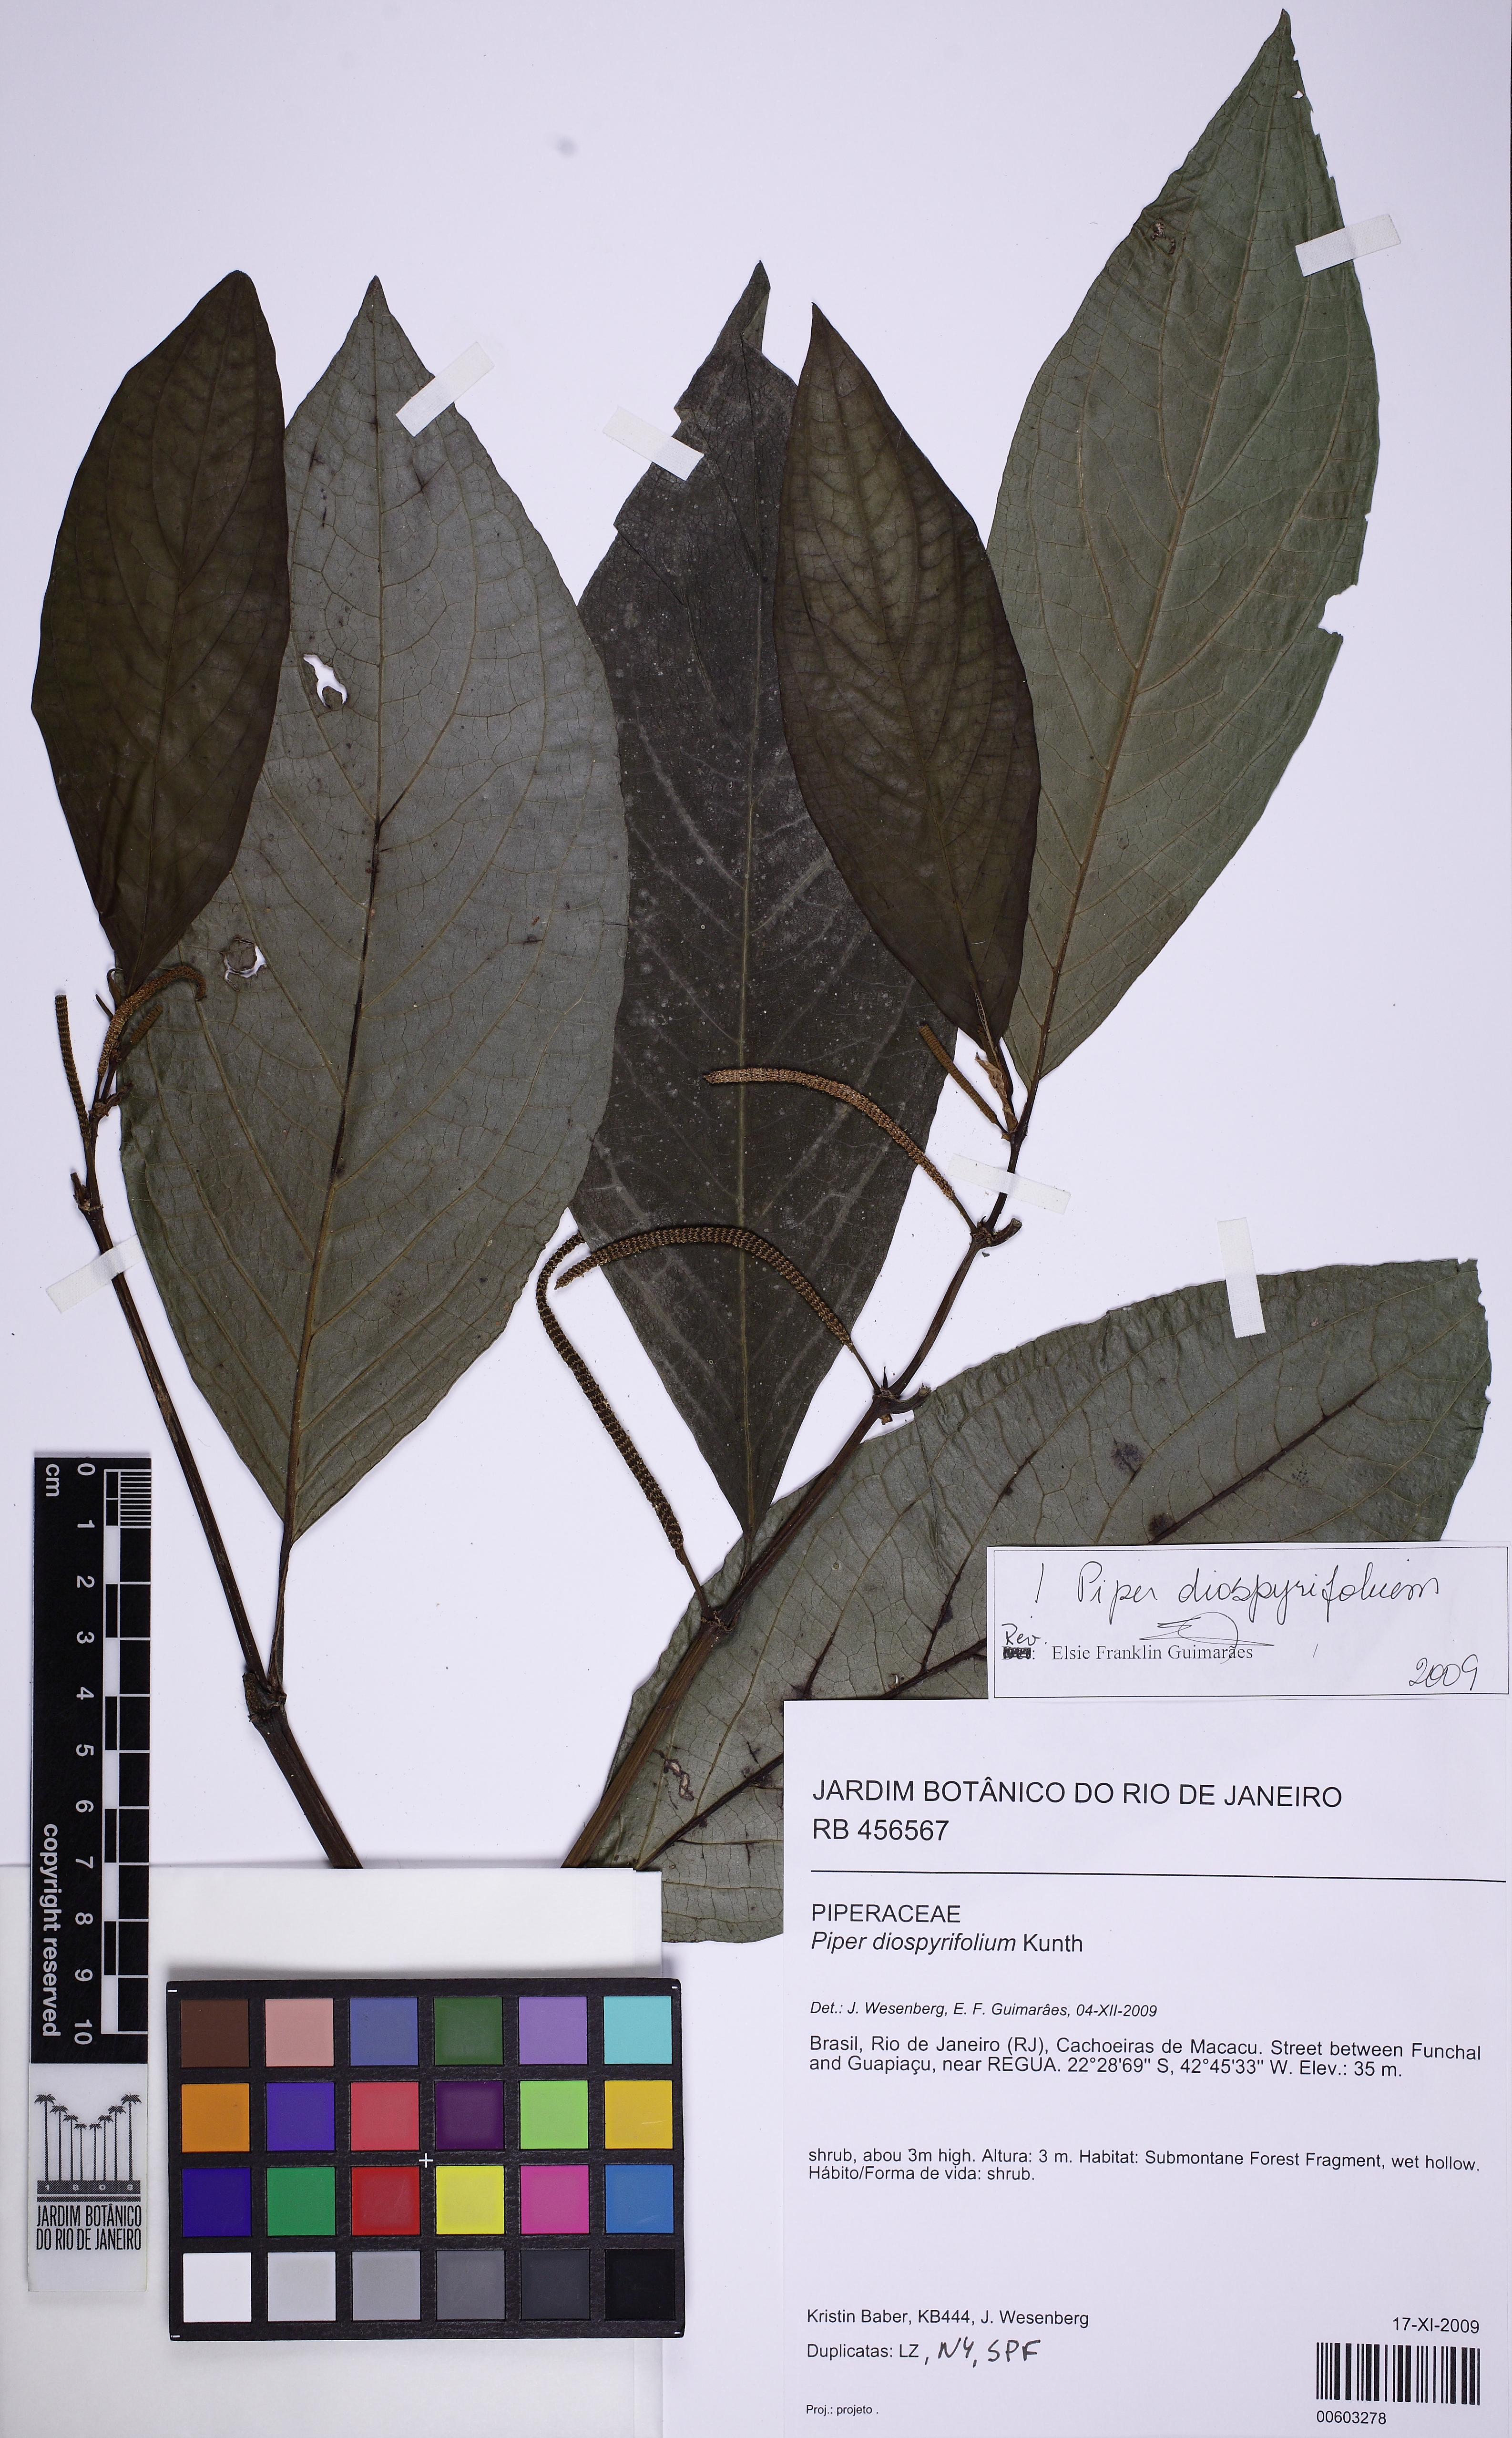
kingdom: Plantae
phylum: Tracheophyta
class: Magnoliopsida
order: Piperales
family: Piperaceae
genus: Piper
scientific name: Piper diospyrifolium
